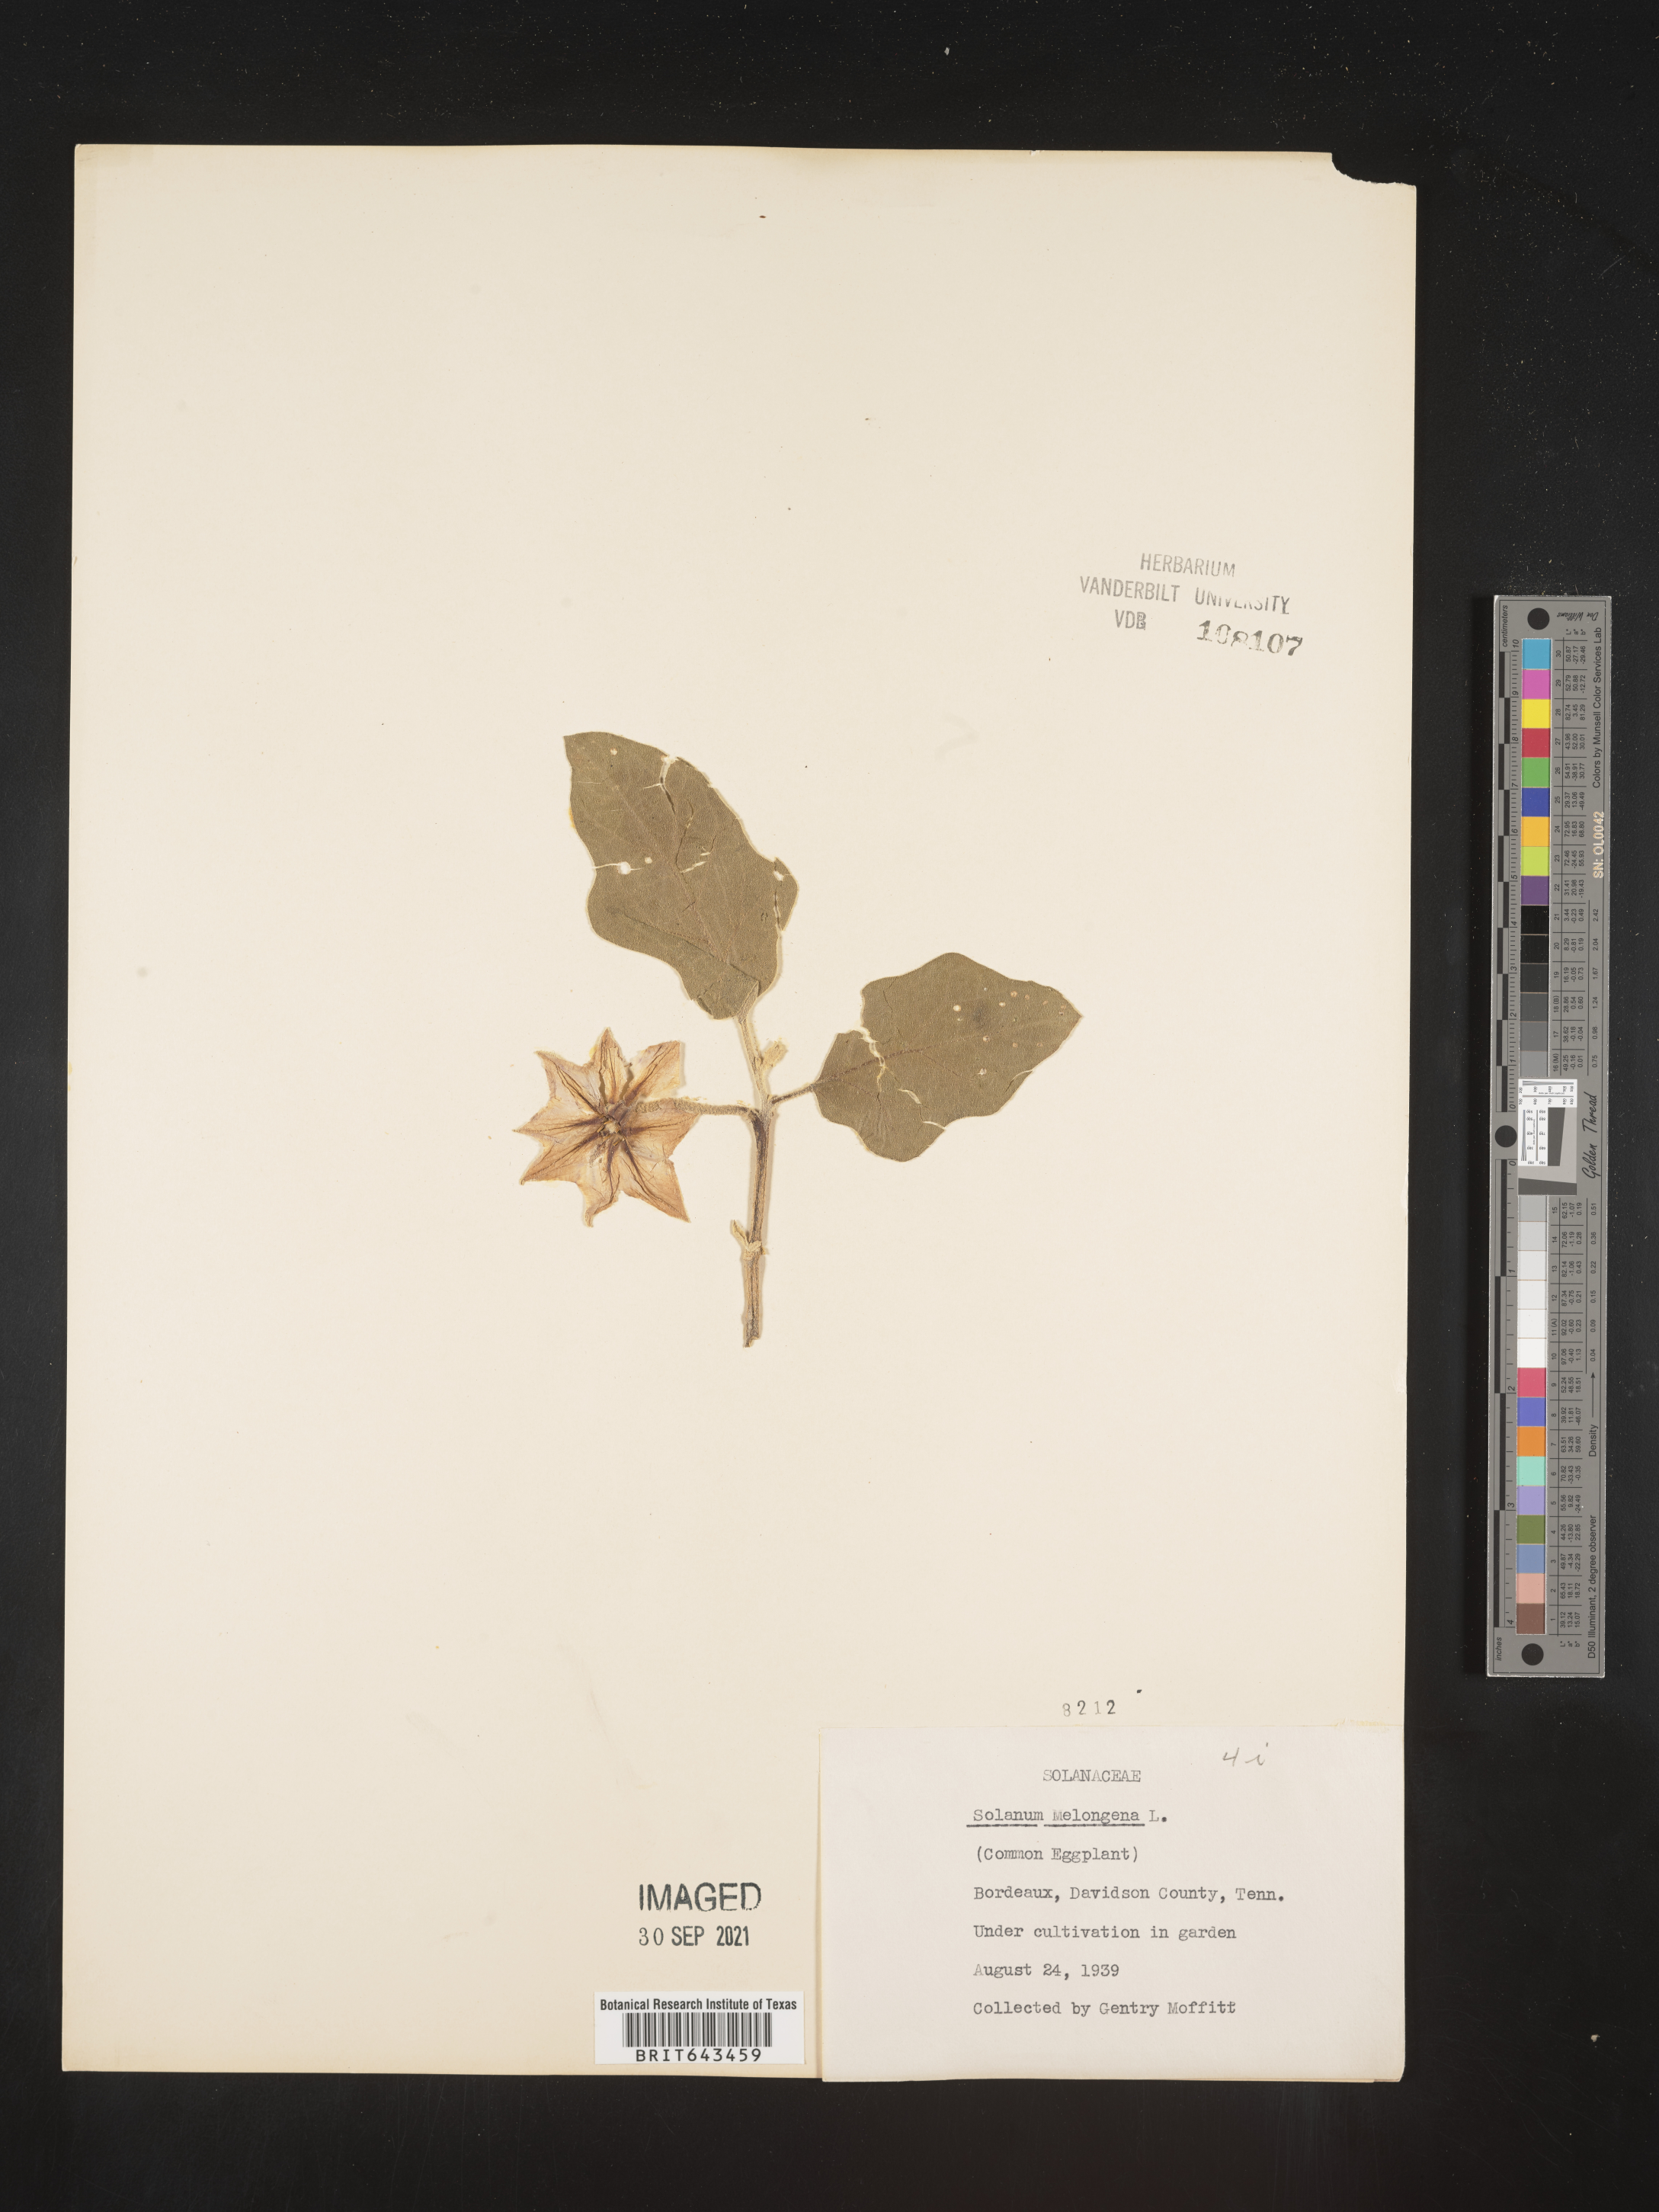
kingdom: Plantae
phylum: Tracheophyta
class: Magnoliopsida
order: Solanales
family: Solanaceae
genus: Solanum
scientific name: Solanum
